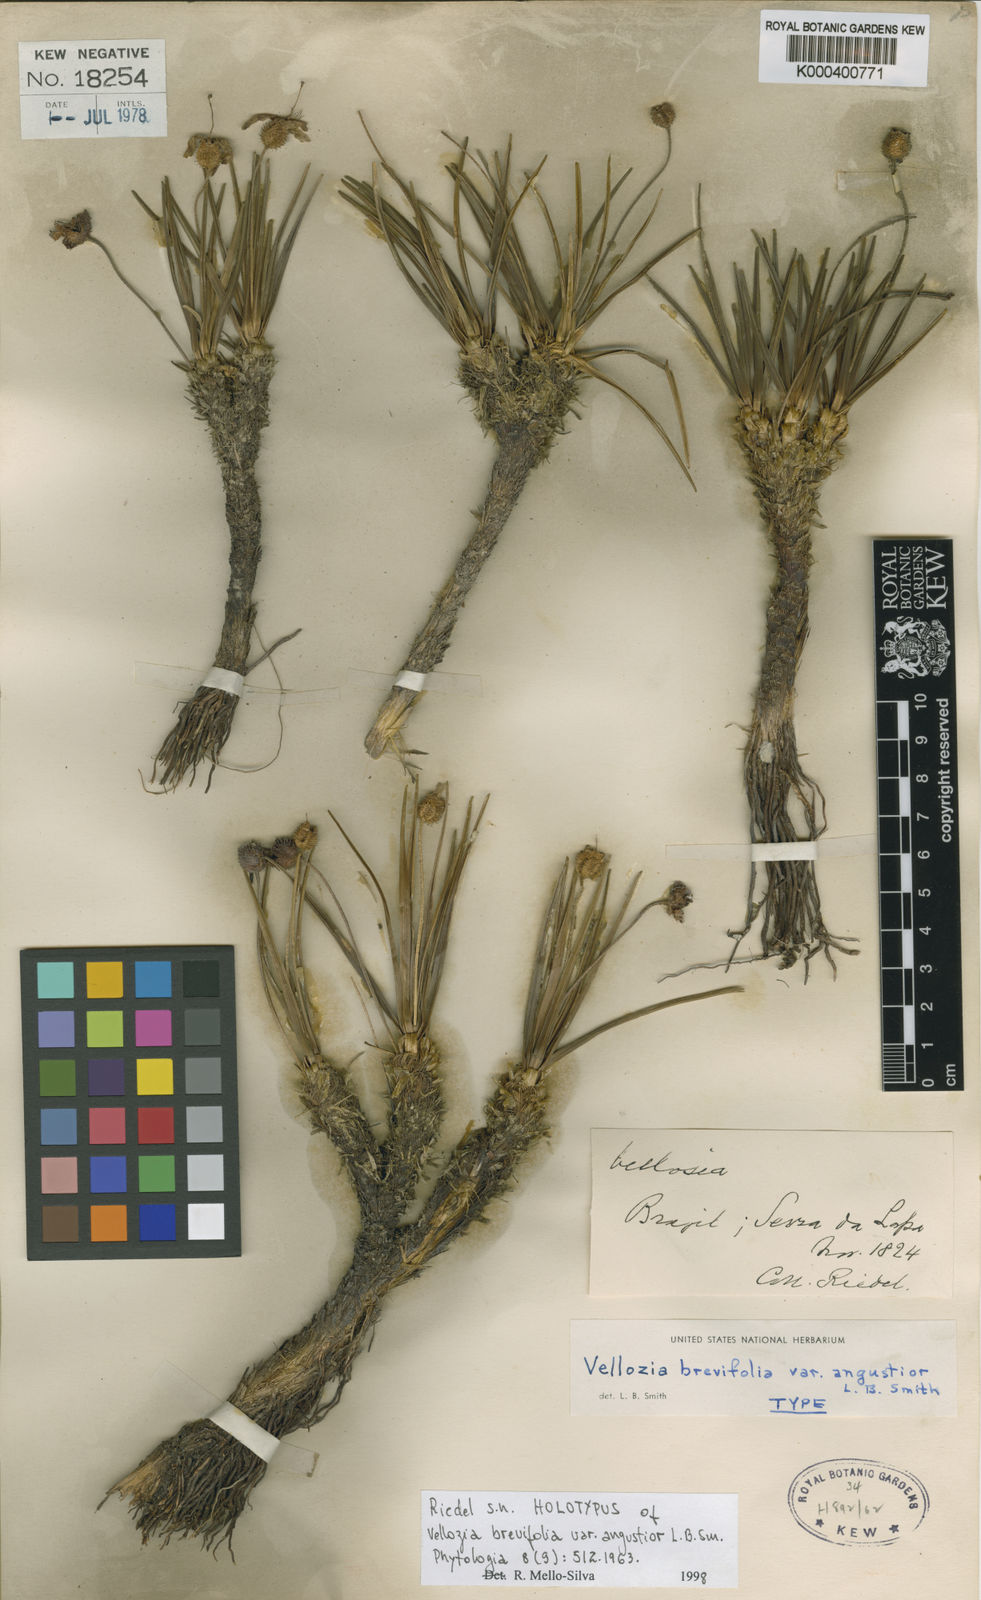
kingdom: Plantae
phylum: Tracheophyta
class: Liliopsida
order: Pandanales
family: Velloziaceae
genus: Vellozia
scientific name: Vellozia brevifolia
